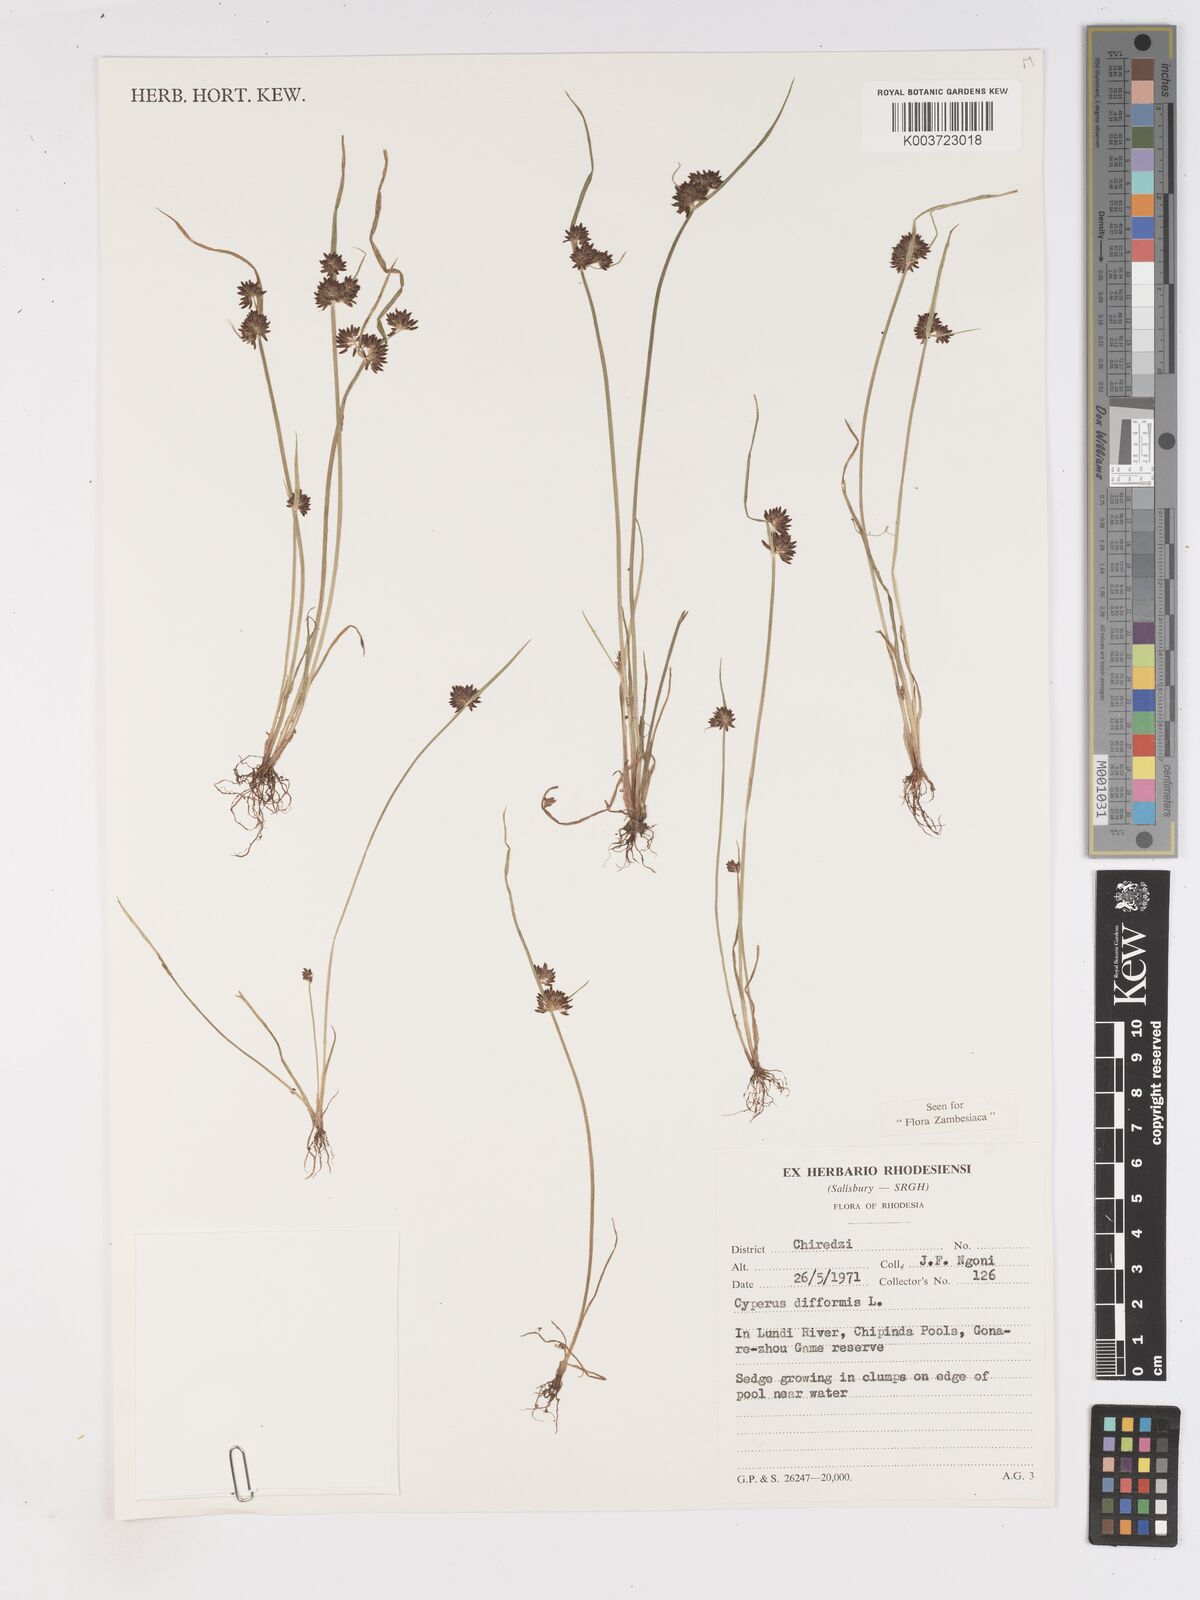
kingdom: Plantae
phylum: Tracheophyta
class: Liliopsida
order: Poales
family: Cyperaceae
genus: Cyperus
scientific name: Cyperus difformis
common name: Variable flatsedge
